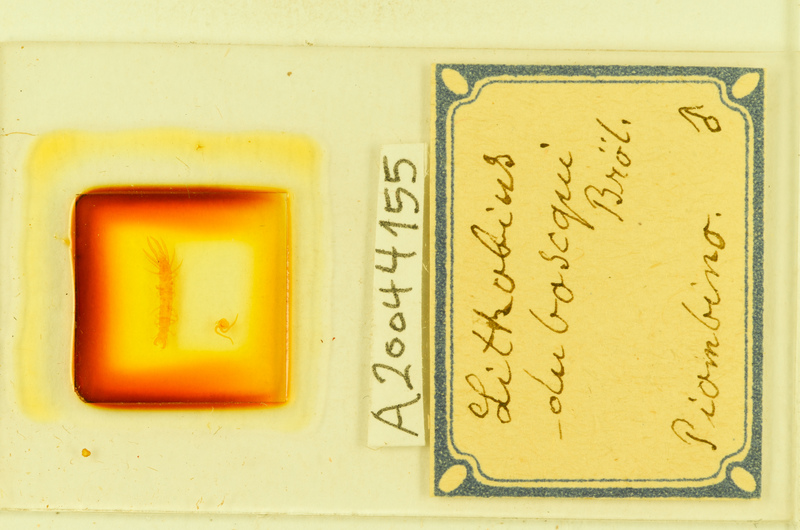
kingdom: Animalia
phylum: Arthropoda
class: Chilopoda
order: Lithobiomorpha
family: Lithobiidae
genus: Lithobius
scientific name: Lithobius microps
